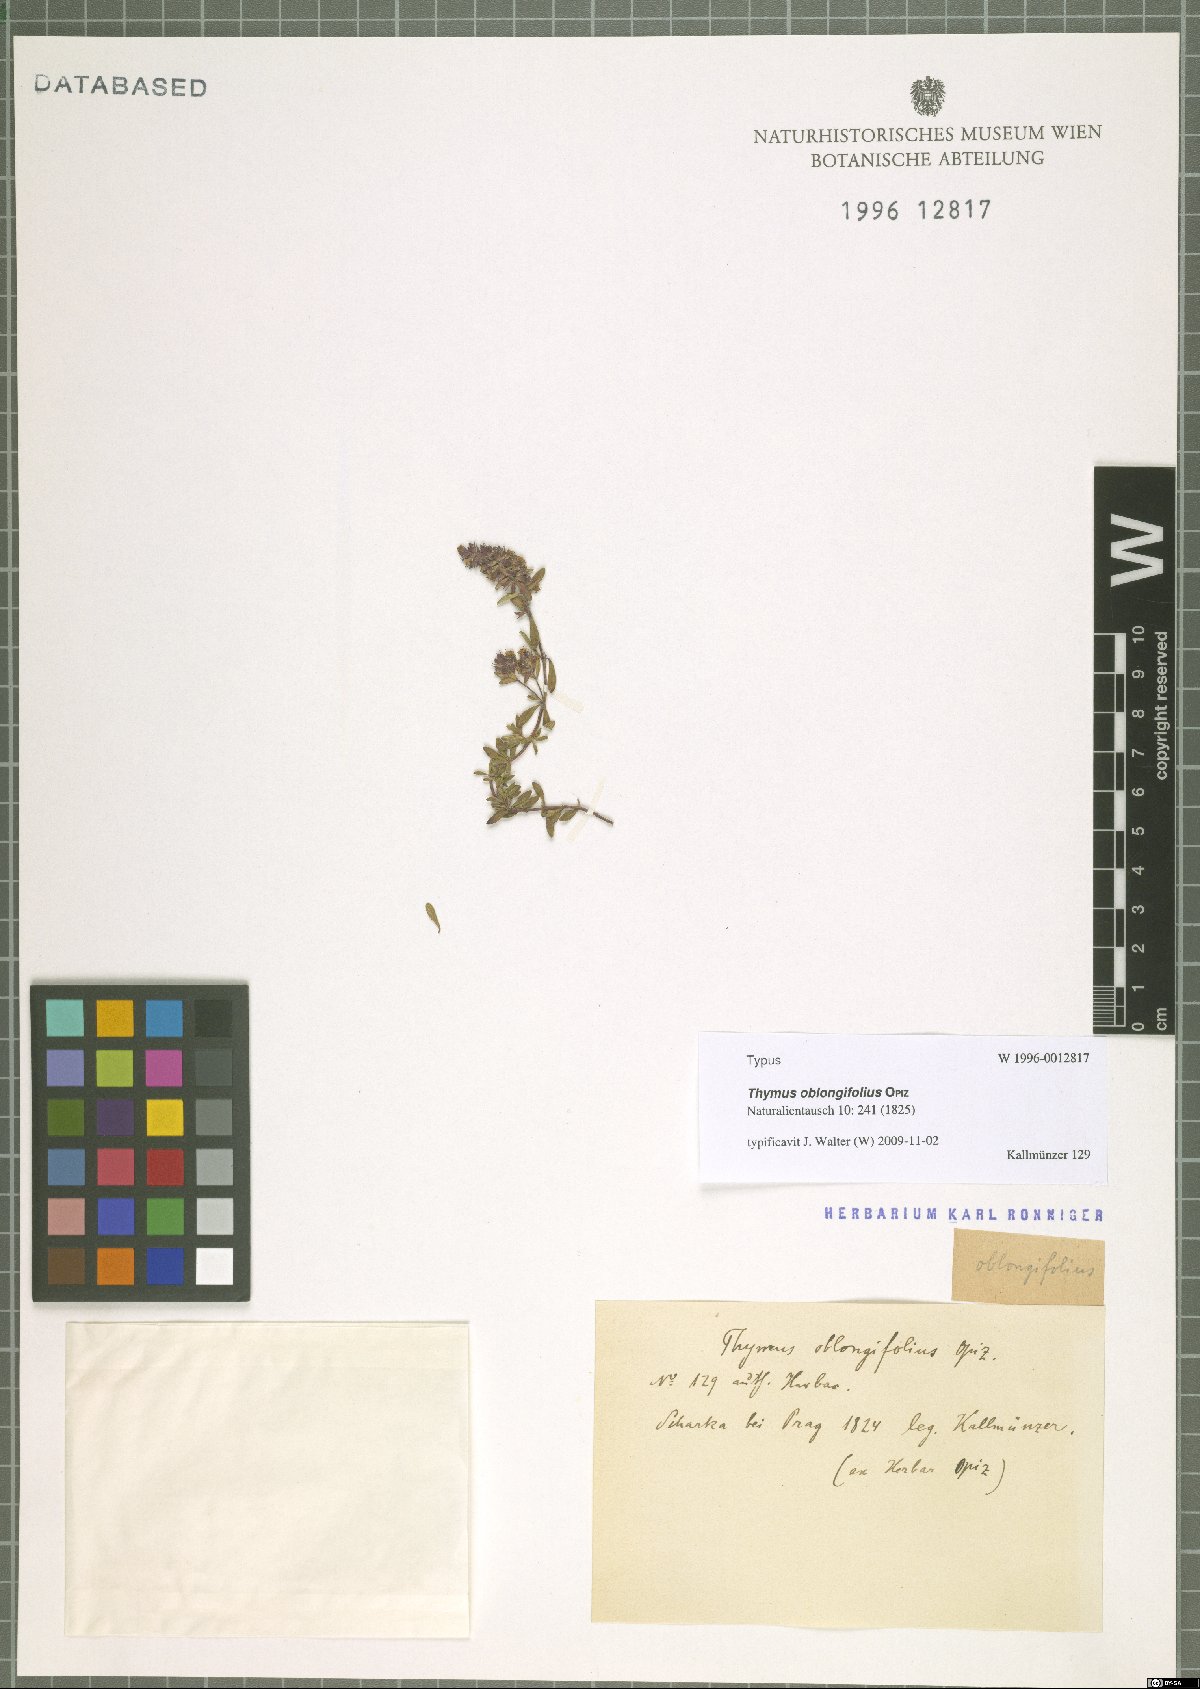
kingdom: Plantae
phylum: Tracheophyta
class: Magnoliopsida
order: Lamiales
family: Lamiaceae
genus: Thymus
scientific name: Thymus oblongifolius
